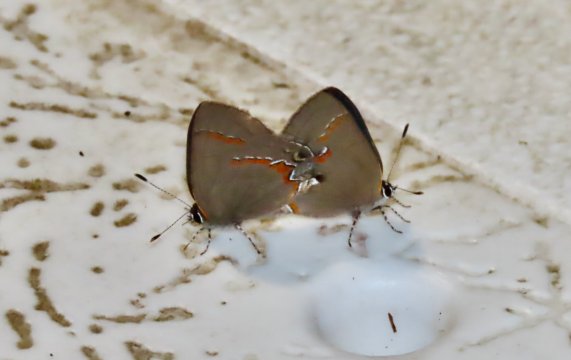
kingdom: Animalia
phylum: Arthropoda
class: Insecta
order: Lepidoptera
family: Lycaenidae
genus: Calycopis
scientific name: Calycopis cecrops
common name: Red-banded Hairstreak
